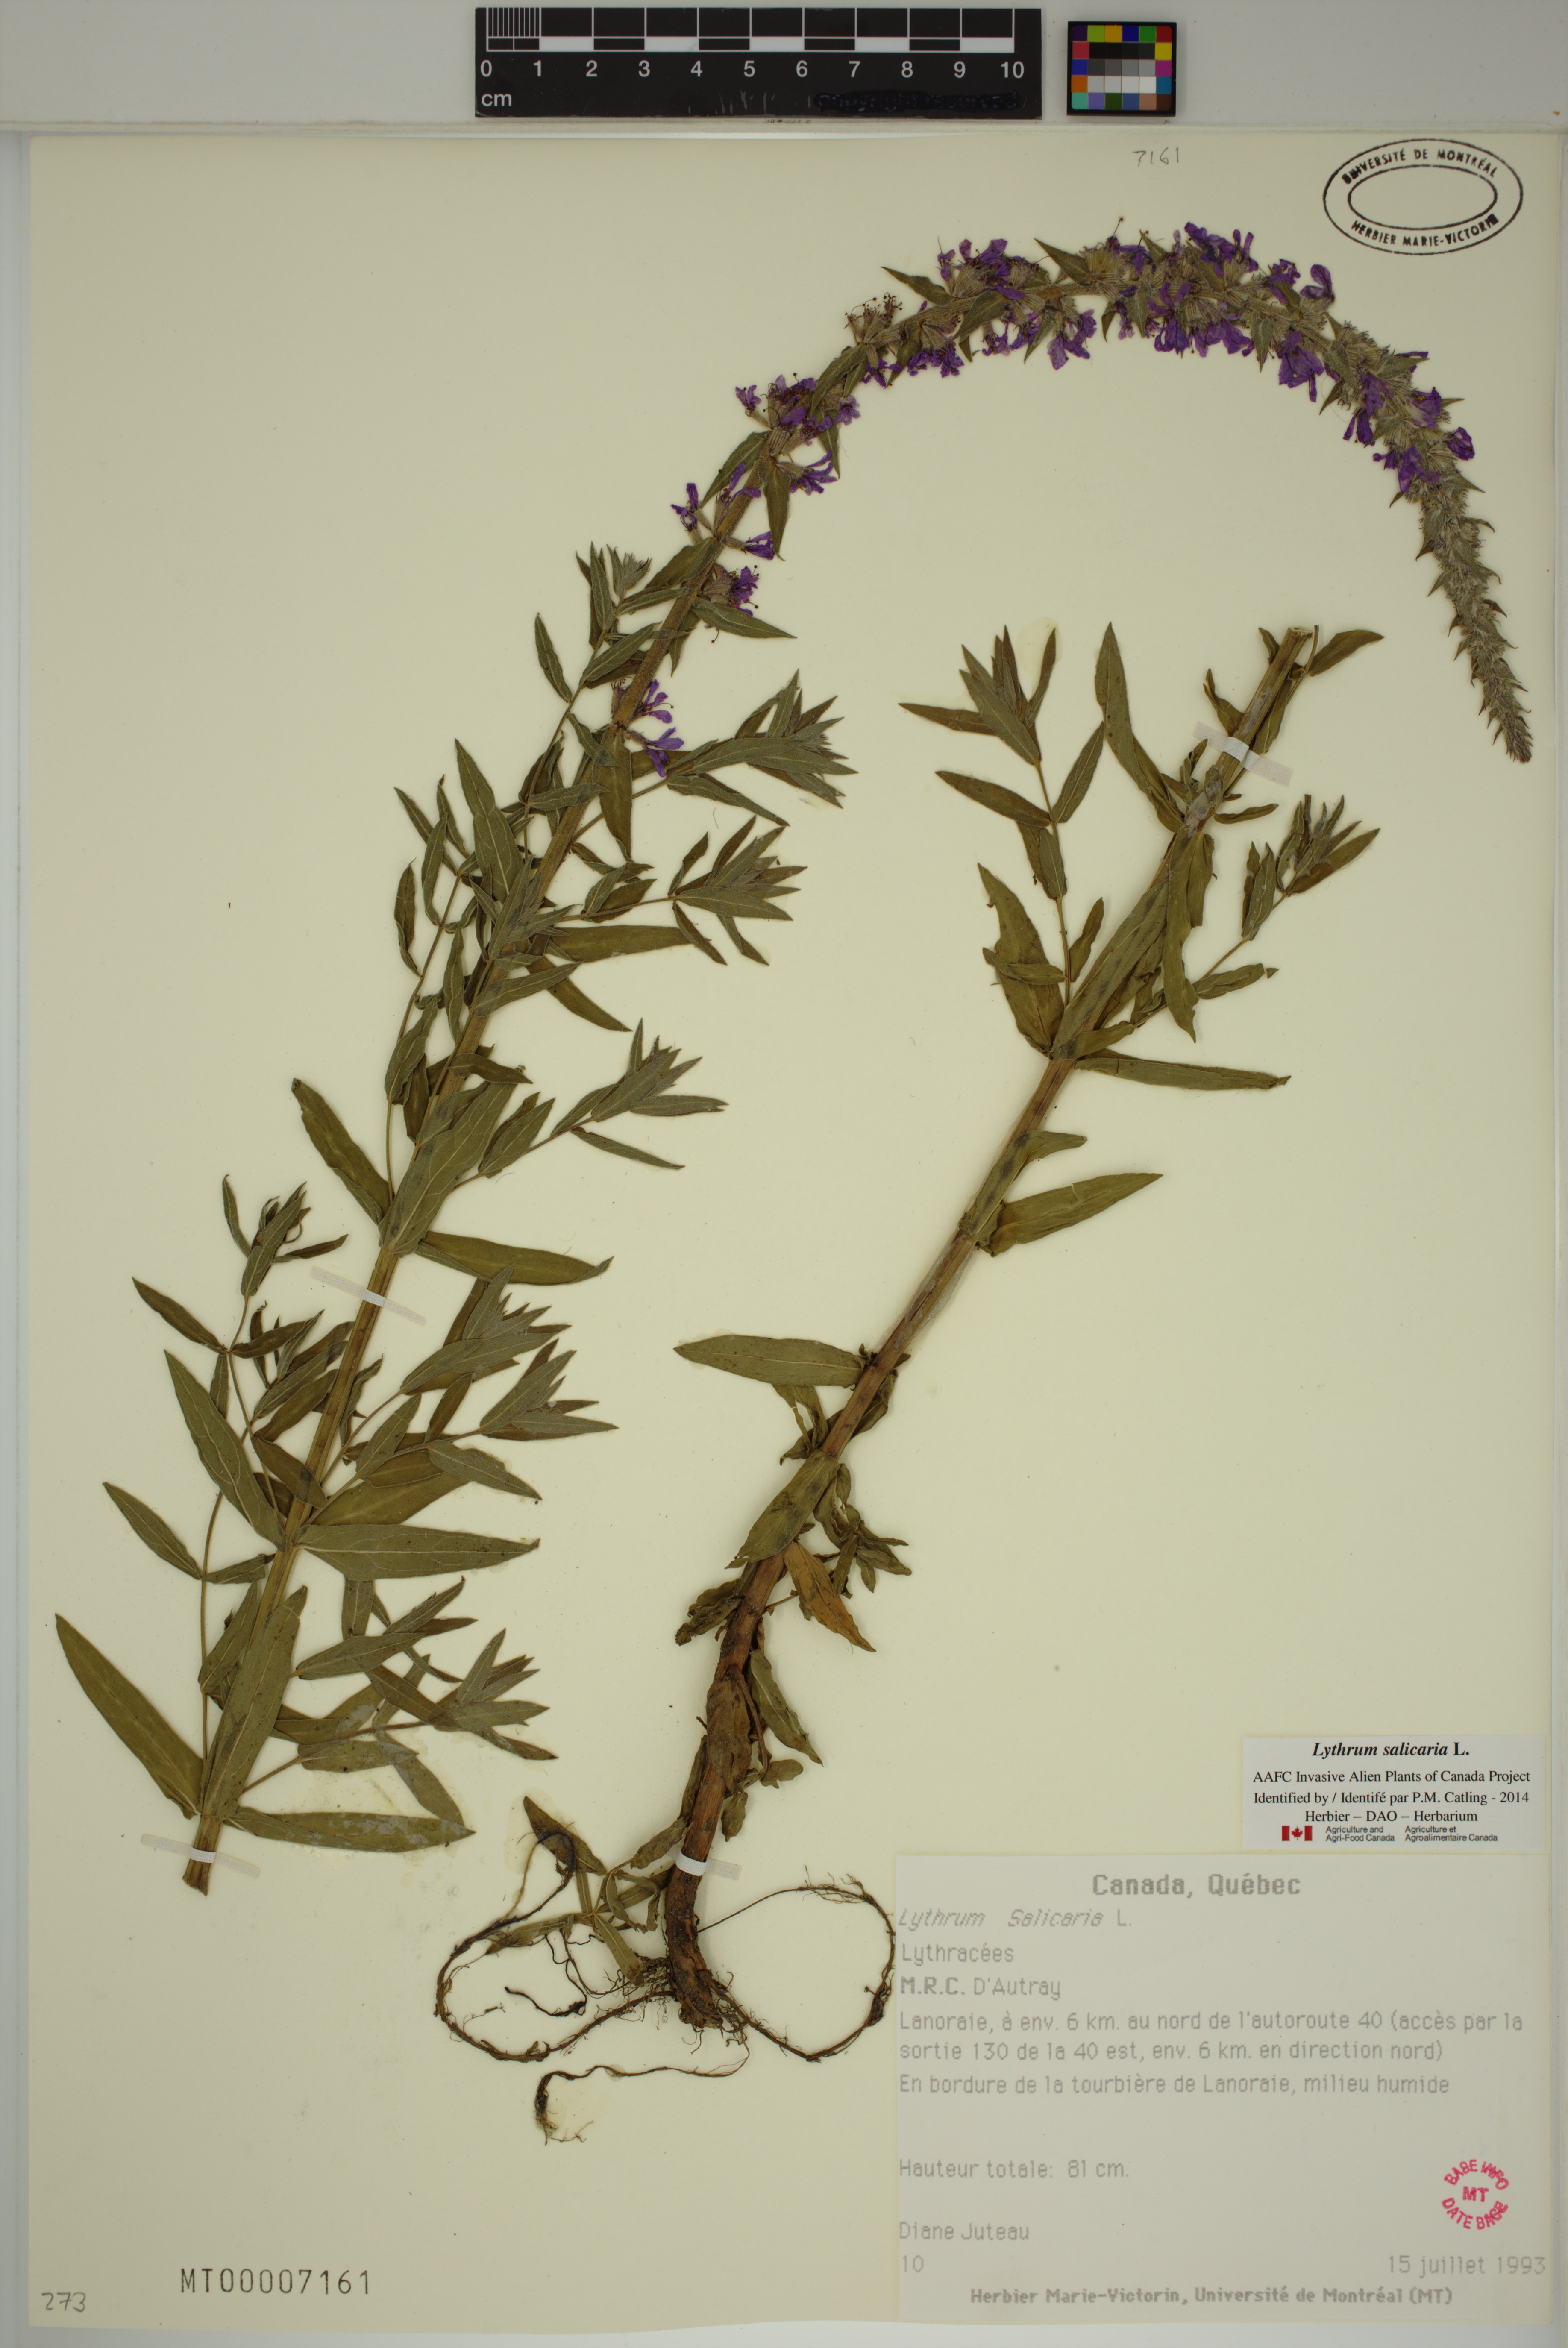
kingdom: Plantae
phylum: Tracheophyta
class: Magnoliopsida
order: Myrtales
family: Lythraceae
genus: Lythrum
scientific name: Lythrum salicaria
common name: Purple loosestrife
